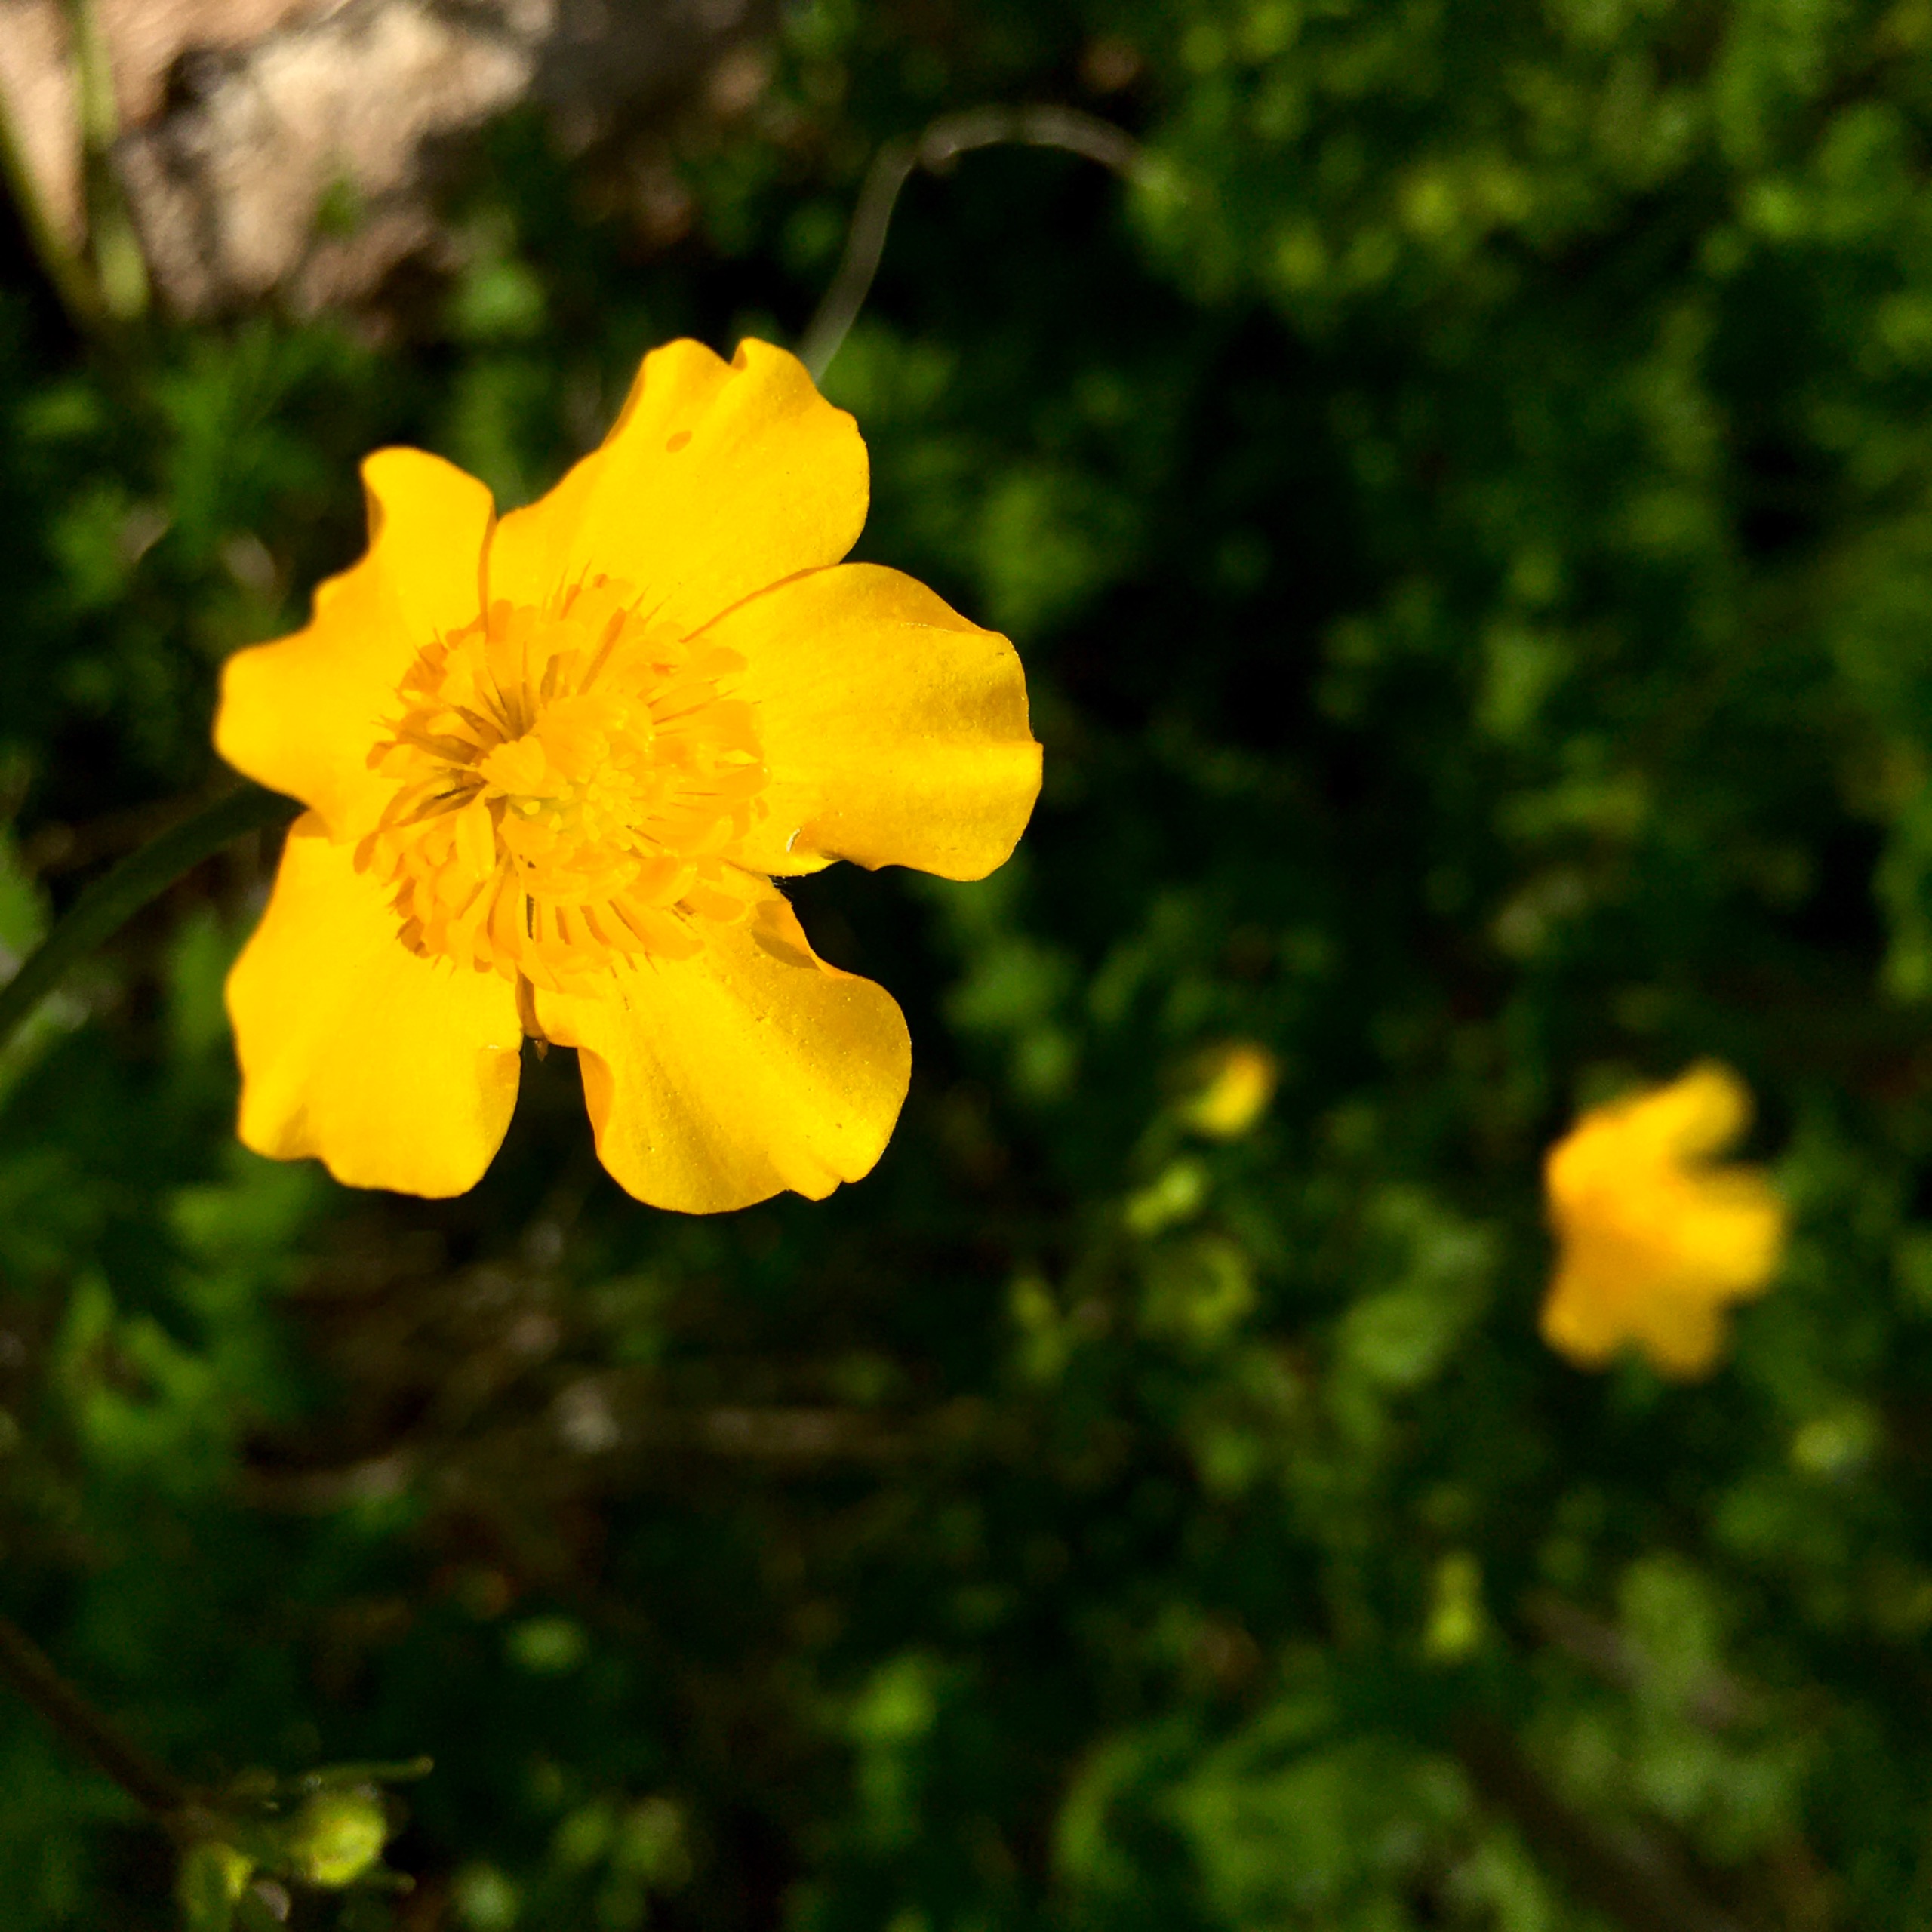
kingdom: Plantae
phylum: Tracheophyta
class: Magnoliopsida
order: Ranunculales
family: Ranunculaceae
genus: Ranunculus
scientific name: Ranunculus repens
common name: Lav ranunkel
